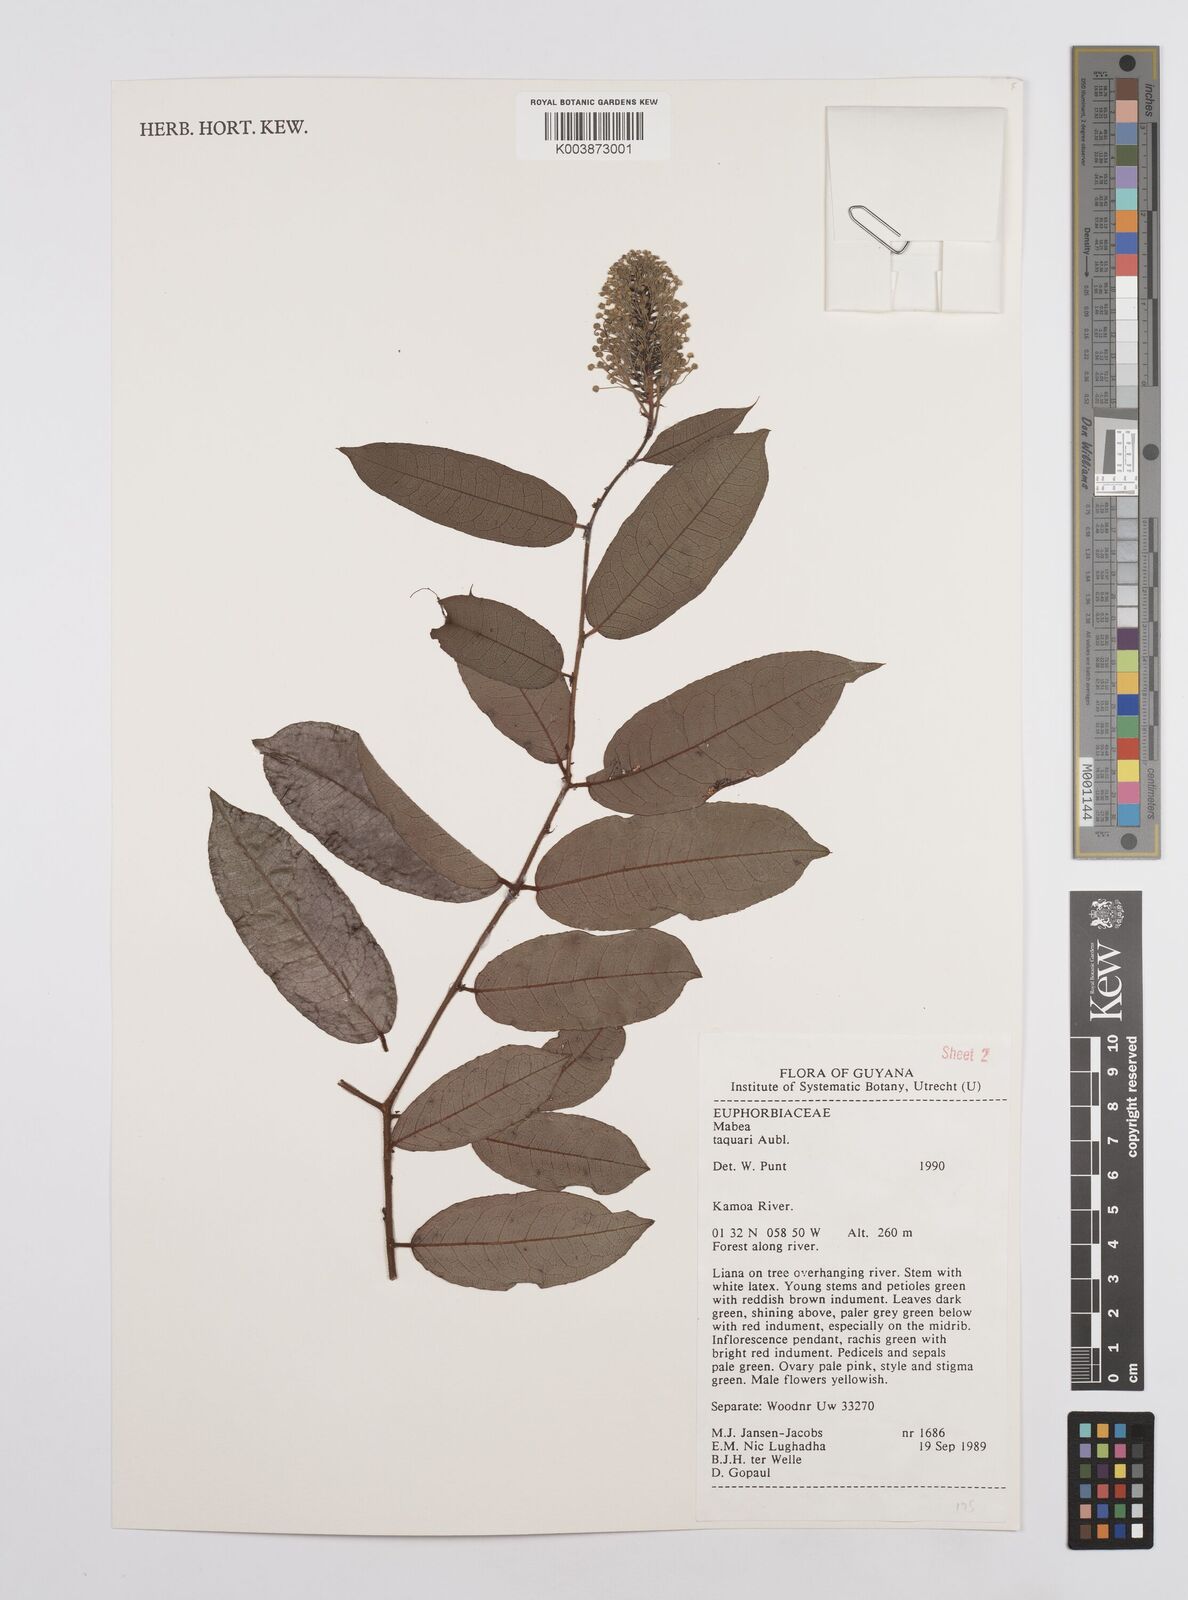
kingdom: Plantae
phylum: Tracheophyta
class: Magnoliopsida
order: Malpighiales
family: Euphorbiaceae
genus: Mabea
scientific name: Mabea taquari
